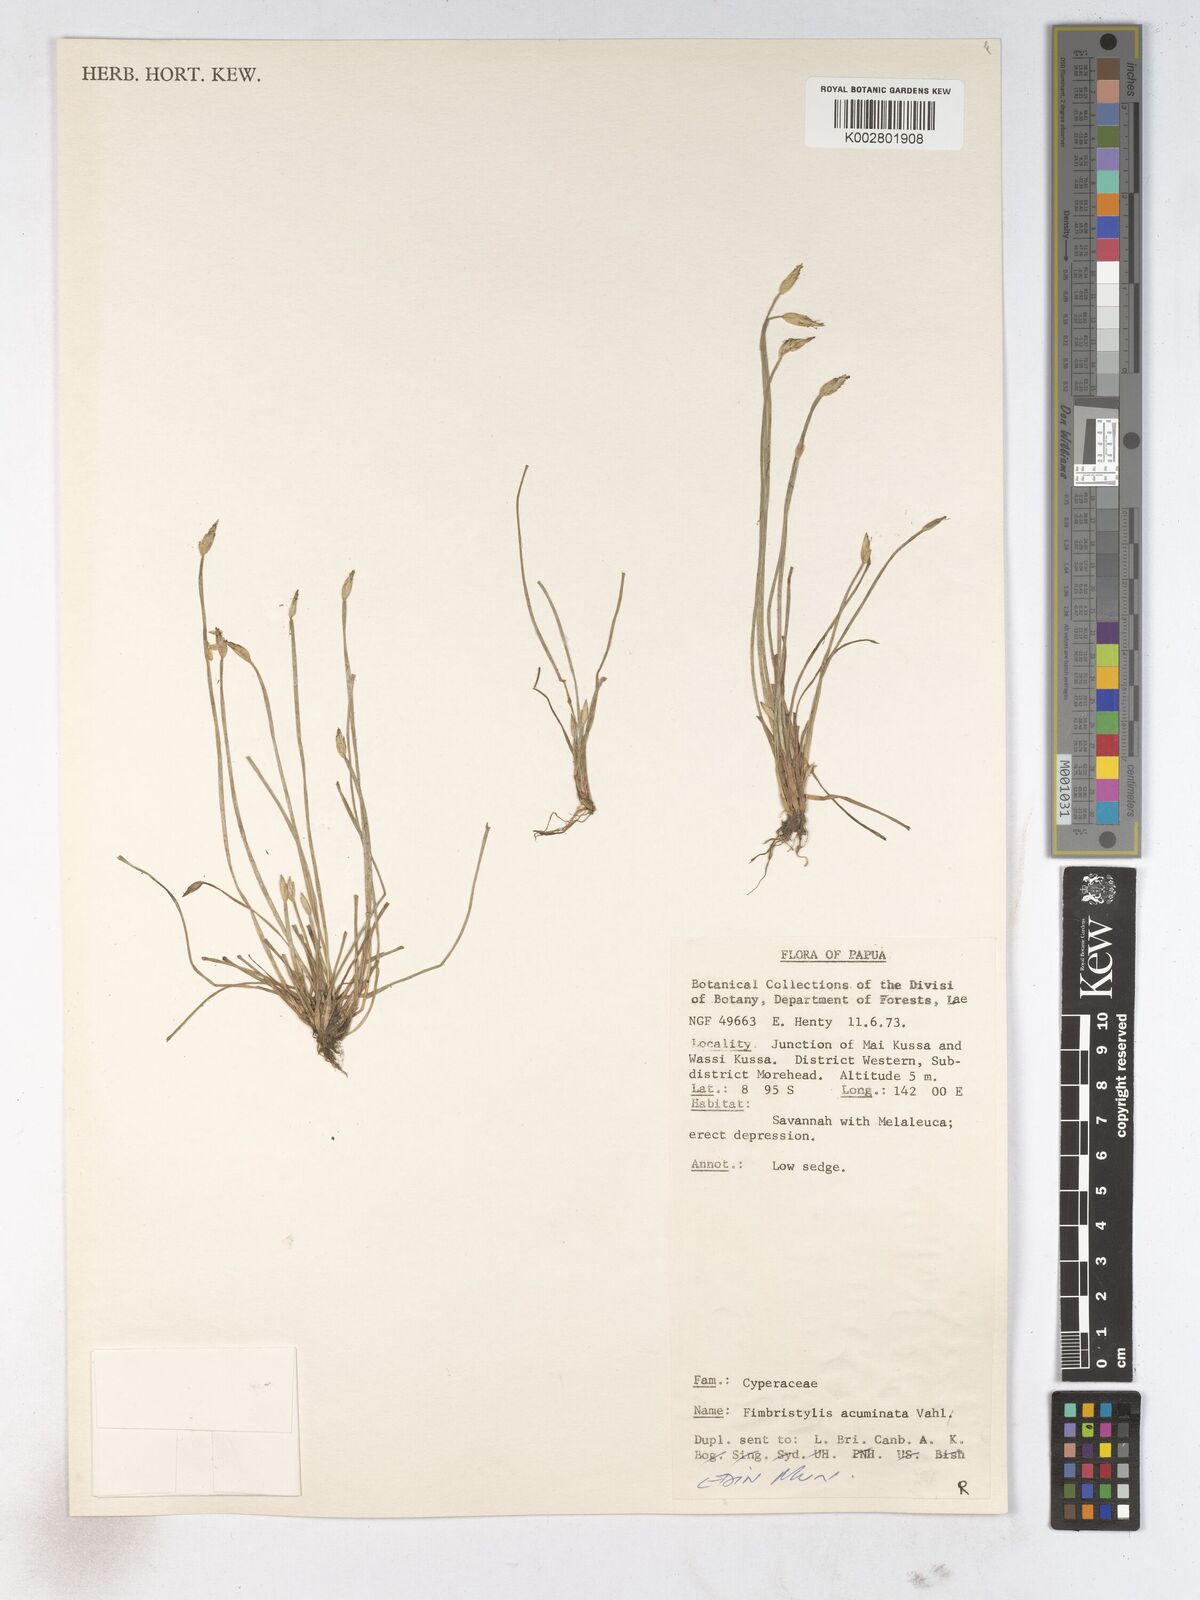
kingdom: Plantae
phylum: Tracheophyta
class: Liliopsida
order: Poales
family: Cyperaceae
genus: Fimbristylis
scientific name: Fimbristylis acuminata
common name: Pointed fimbristylis
